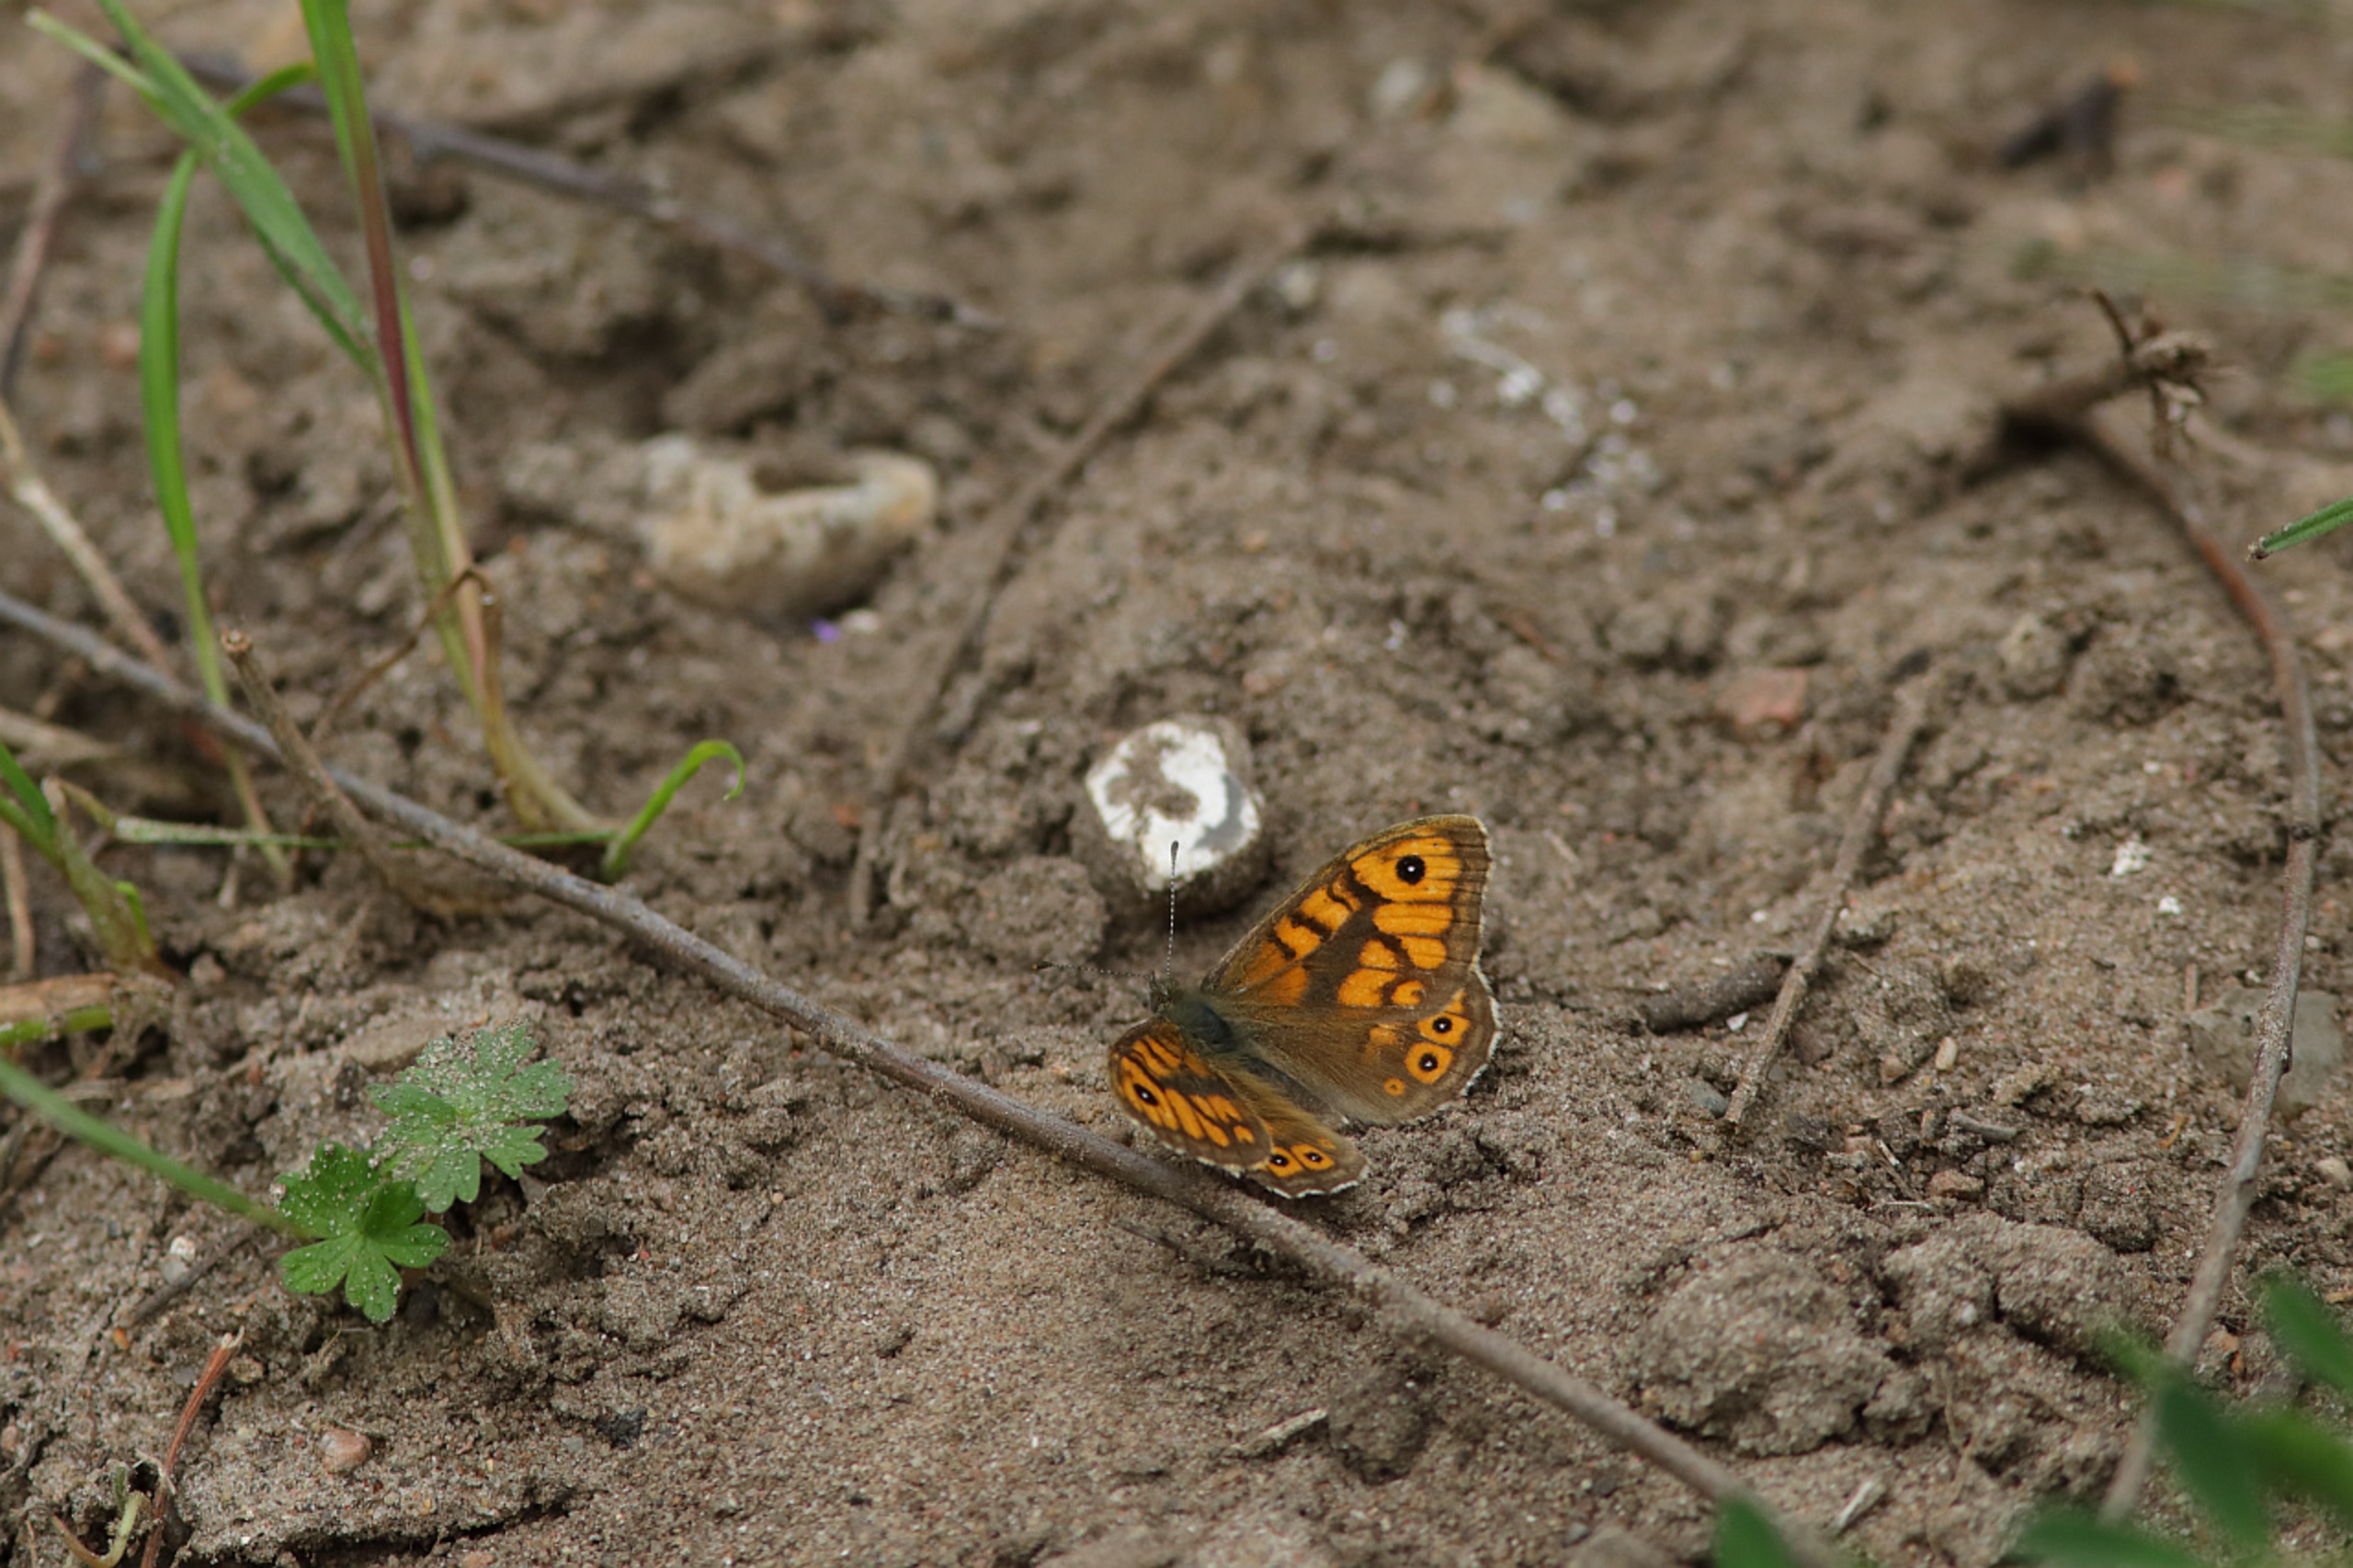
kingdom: Animalia
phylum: Arthropoda
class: Insecta
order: Lepidoptera
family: Nymphalidae
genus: Pararge
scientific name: Pararge Lasiommata megera
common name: Vejrandøje
